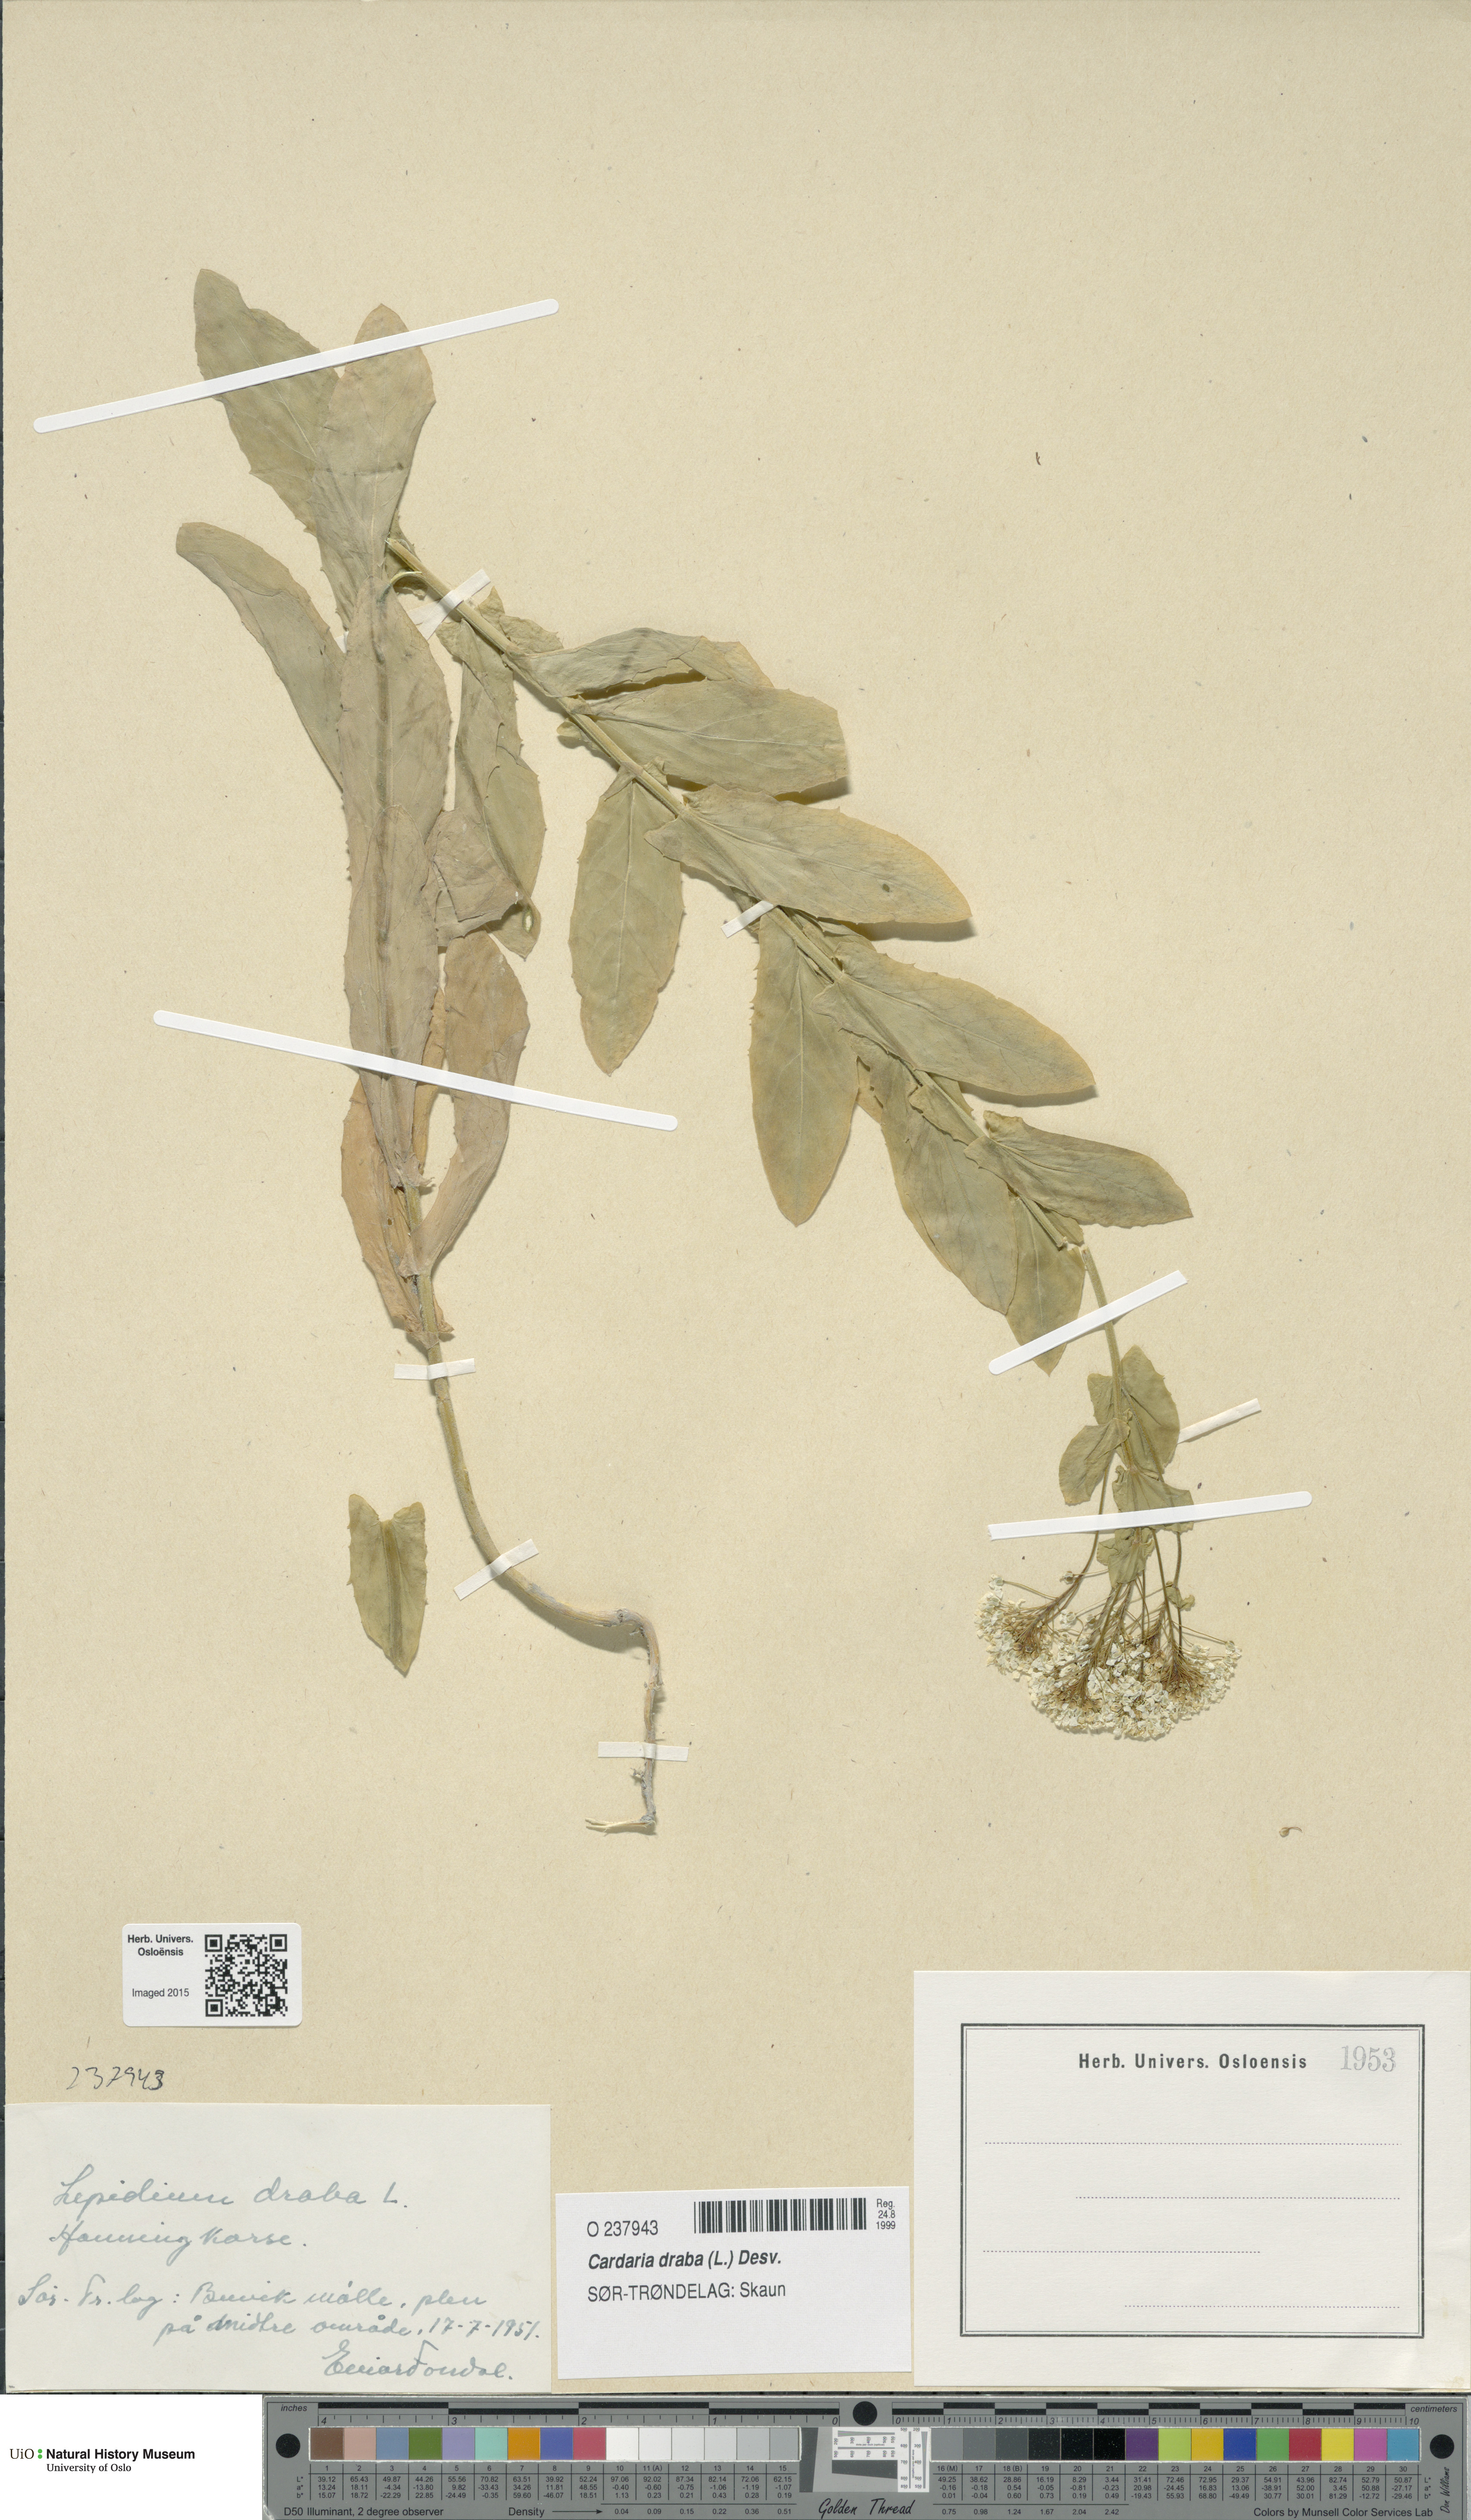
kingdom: Plantae
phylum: Tracheophyta
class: Magnoliopsida
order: Brassicales
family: Brassicaceae
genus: Lepidium
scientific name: Lepidium draba
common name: Hoary cress
